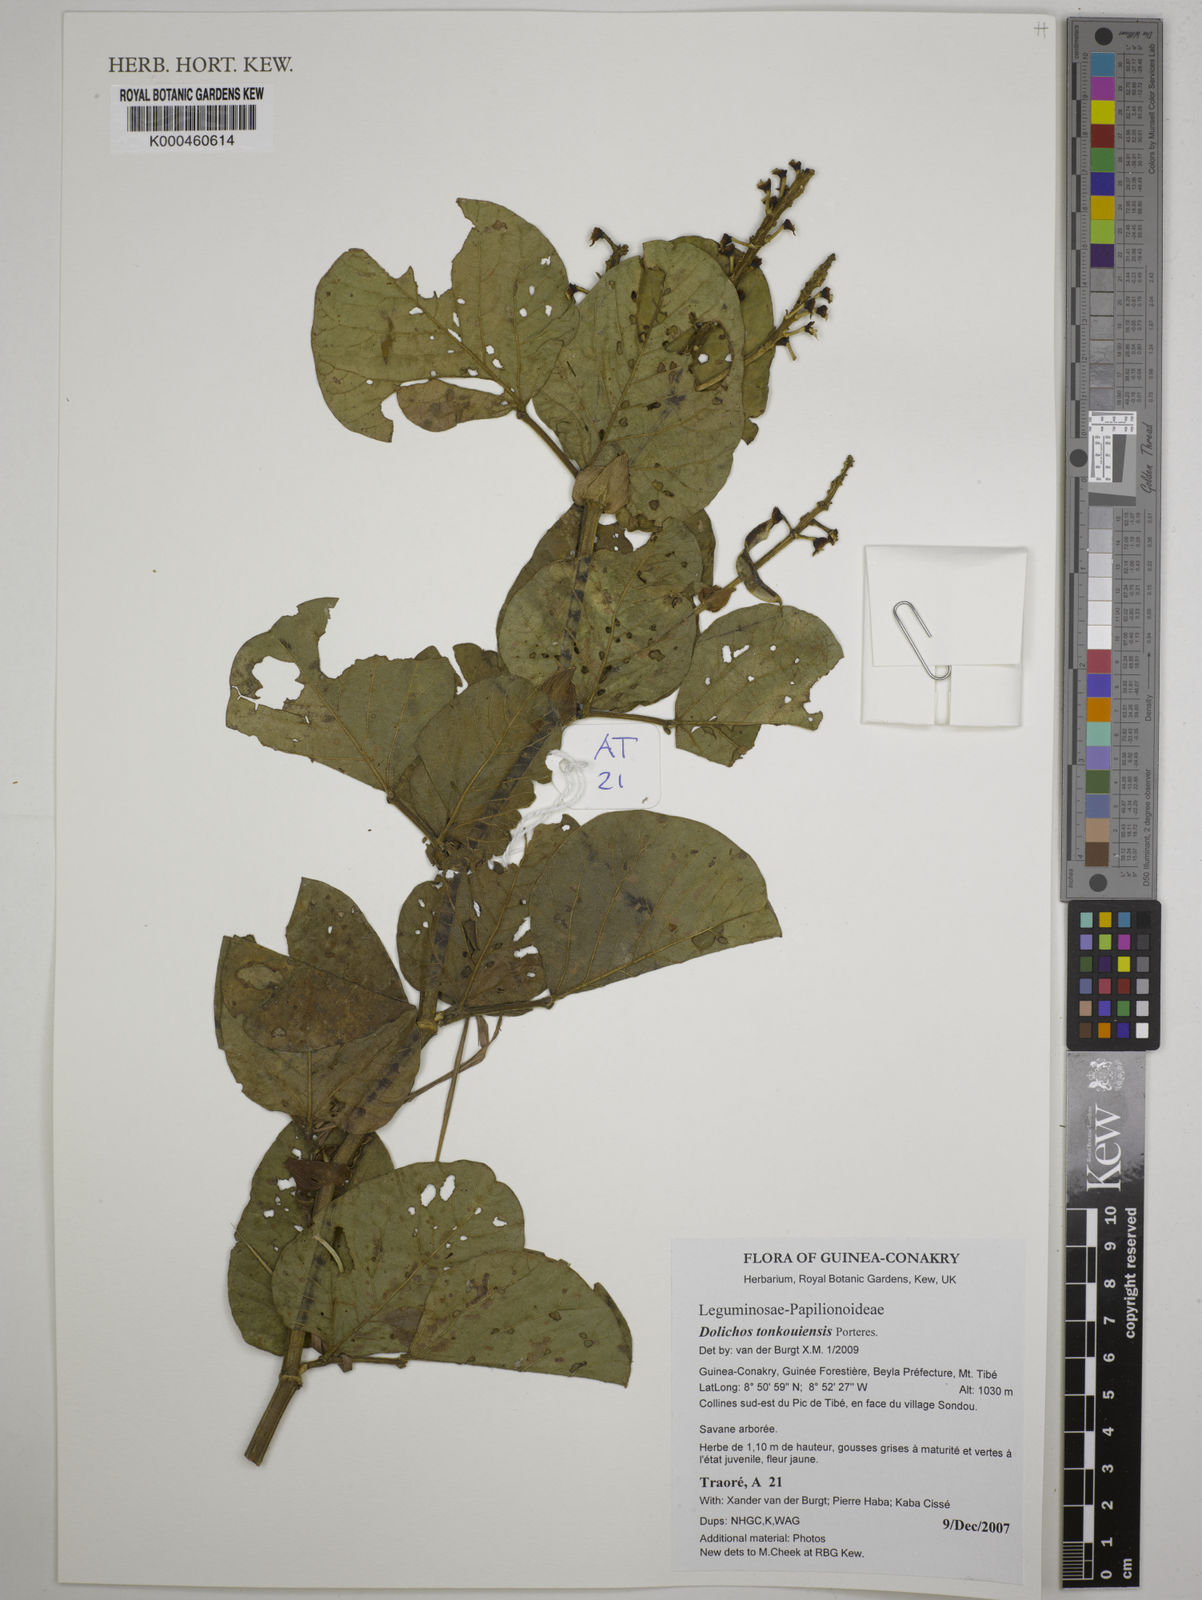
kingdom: Plantae
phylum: Tracheophyta
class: Magnoliopsida
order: Fabales
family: Fabaceae
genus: Dolichos
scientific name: Dolichos tonkouiensis
